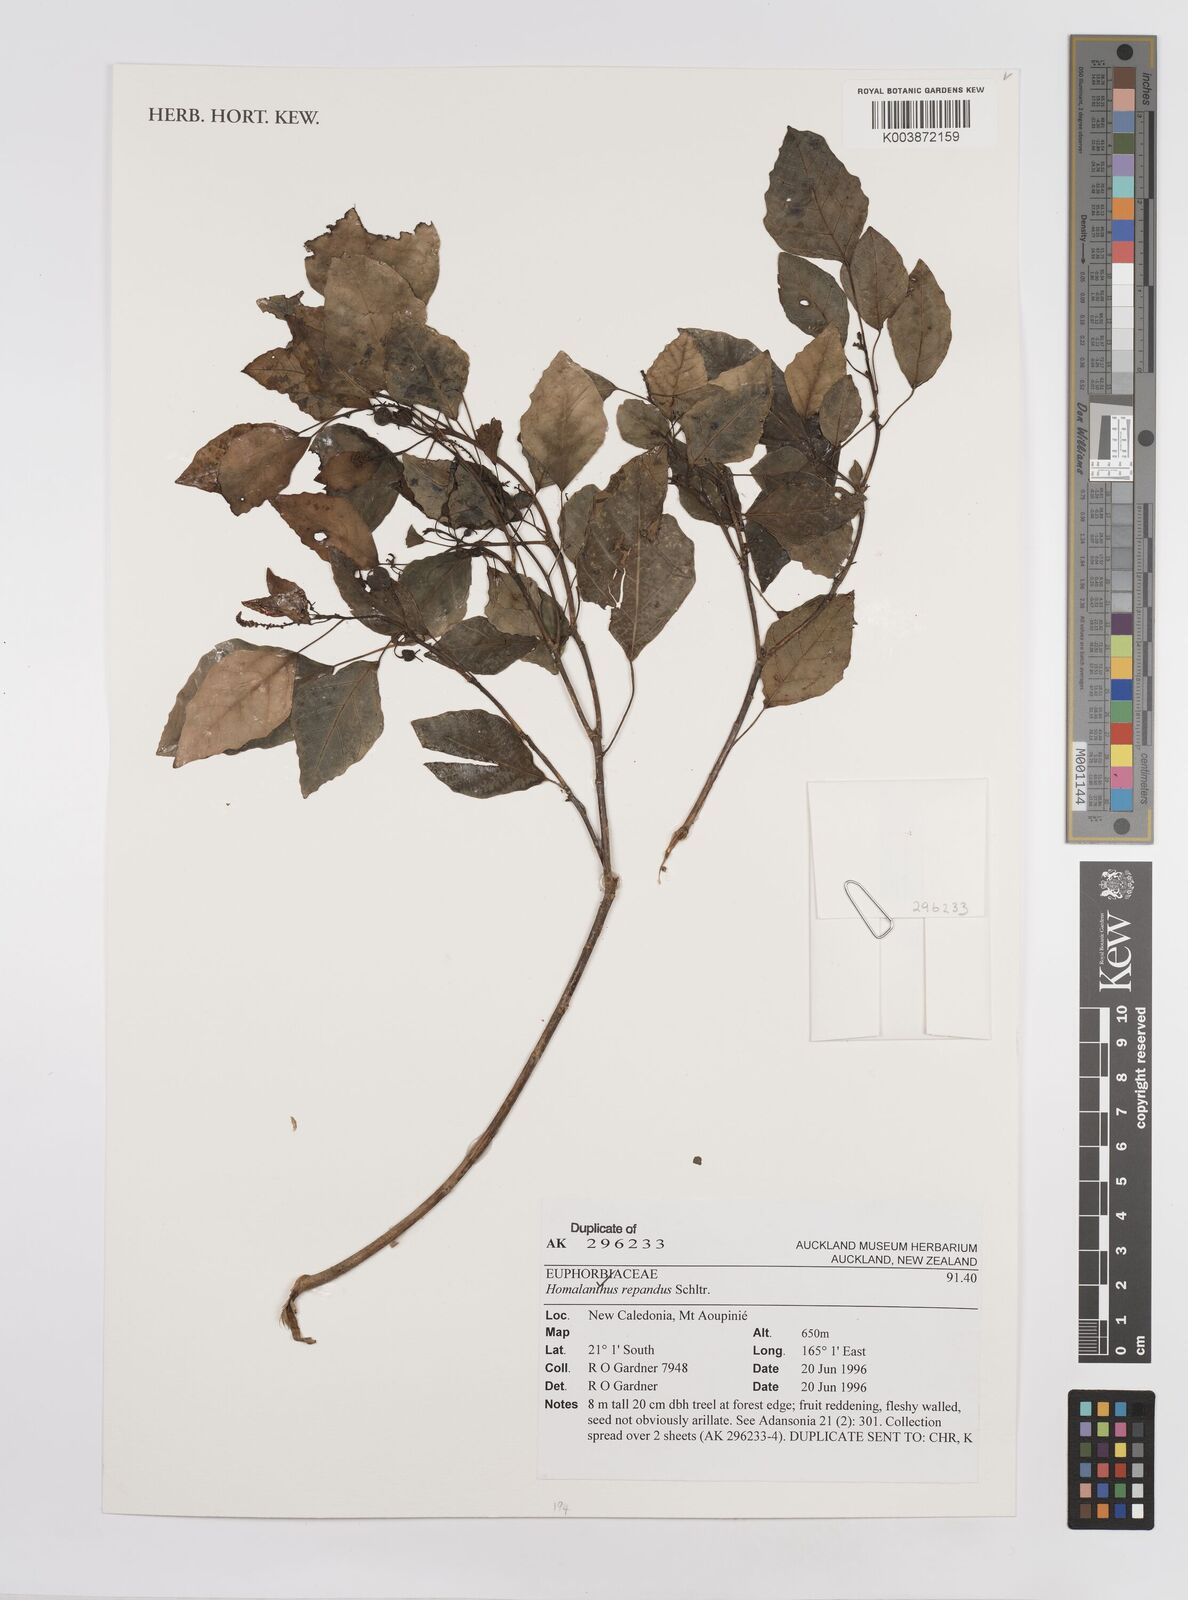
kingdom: Plantae
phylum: Tracheophyta
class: Magnoliopsida
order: Malpighiales
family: Euphorbiaceae
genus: Homalanthus
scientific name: Homalanthus repandus
